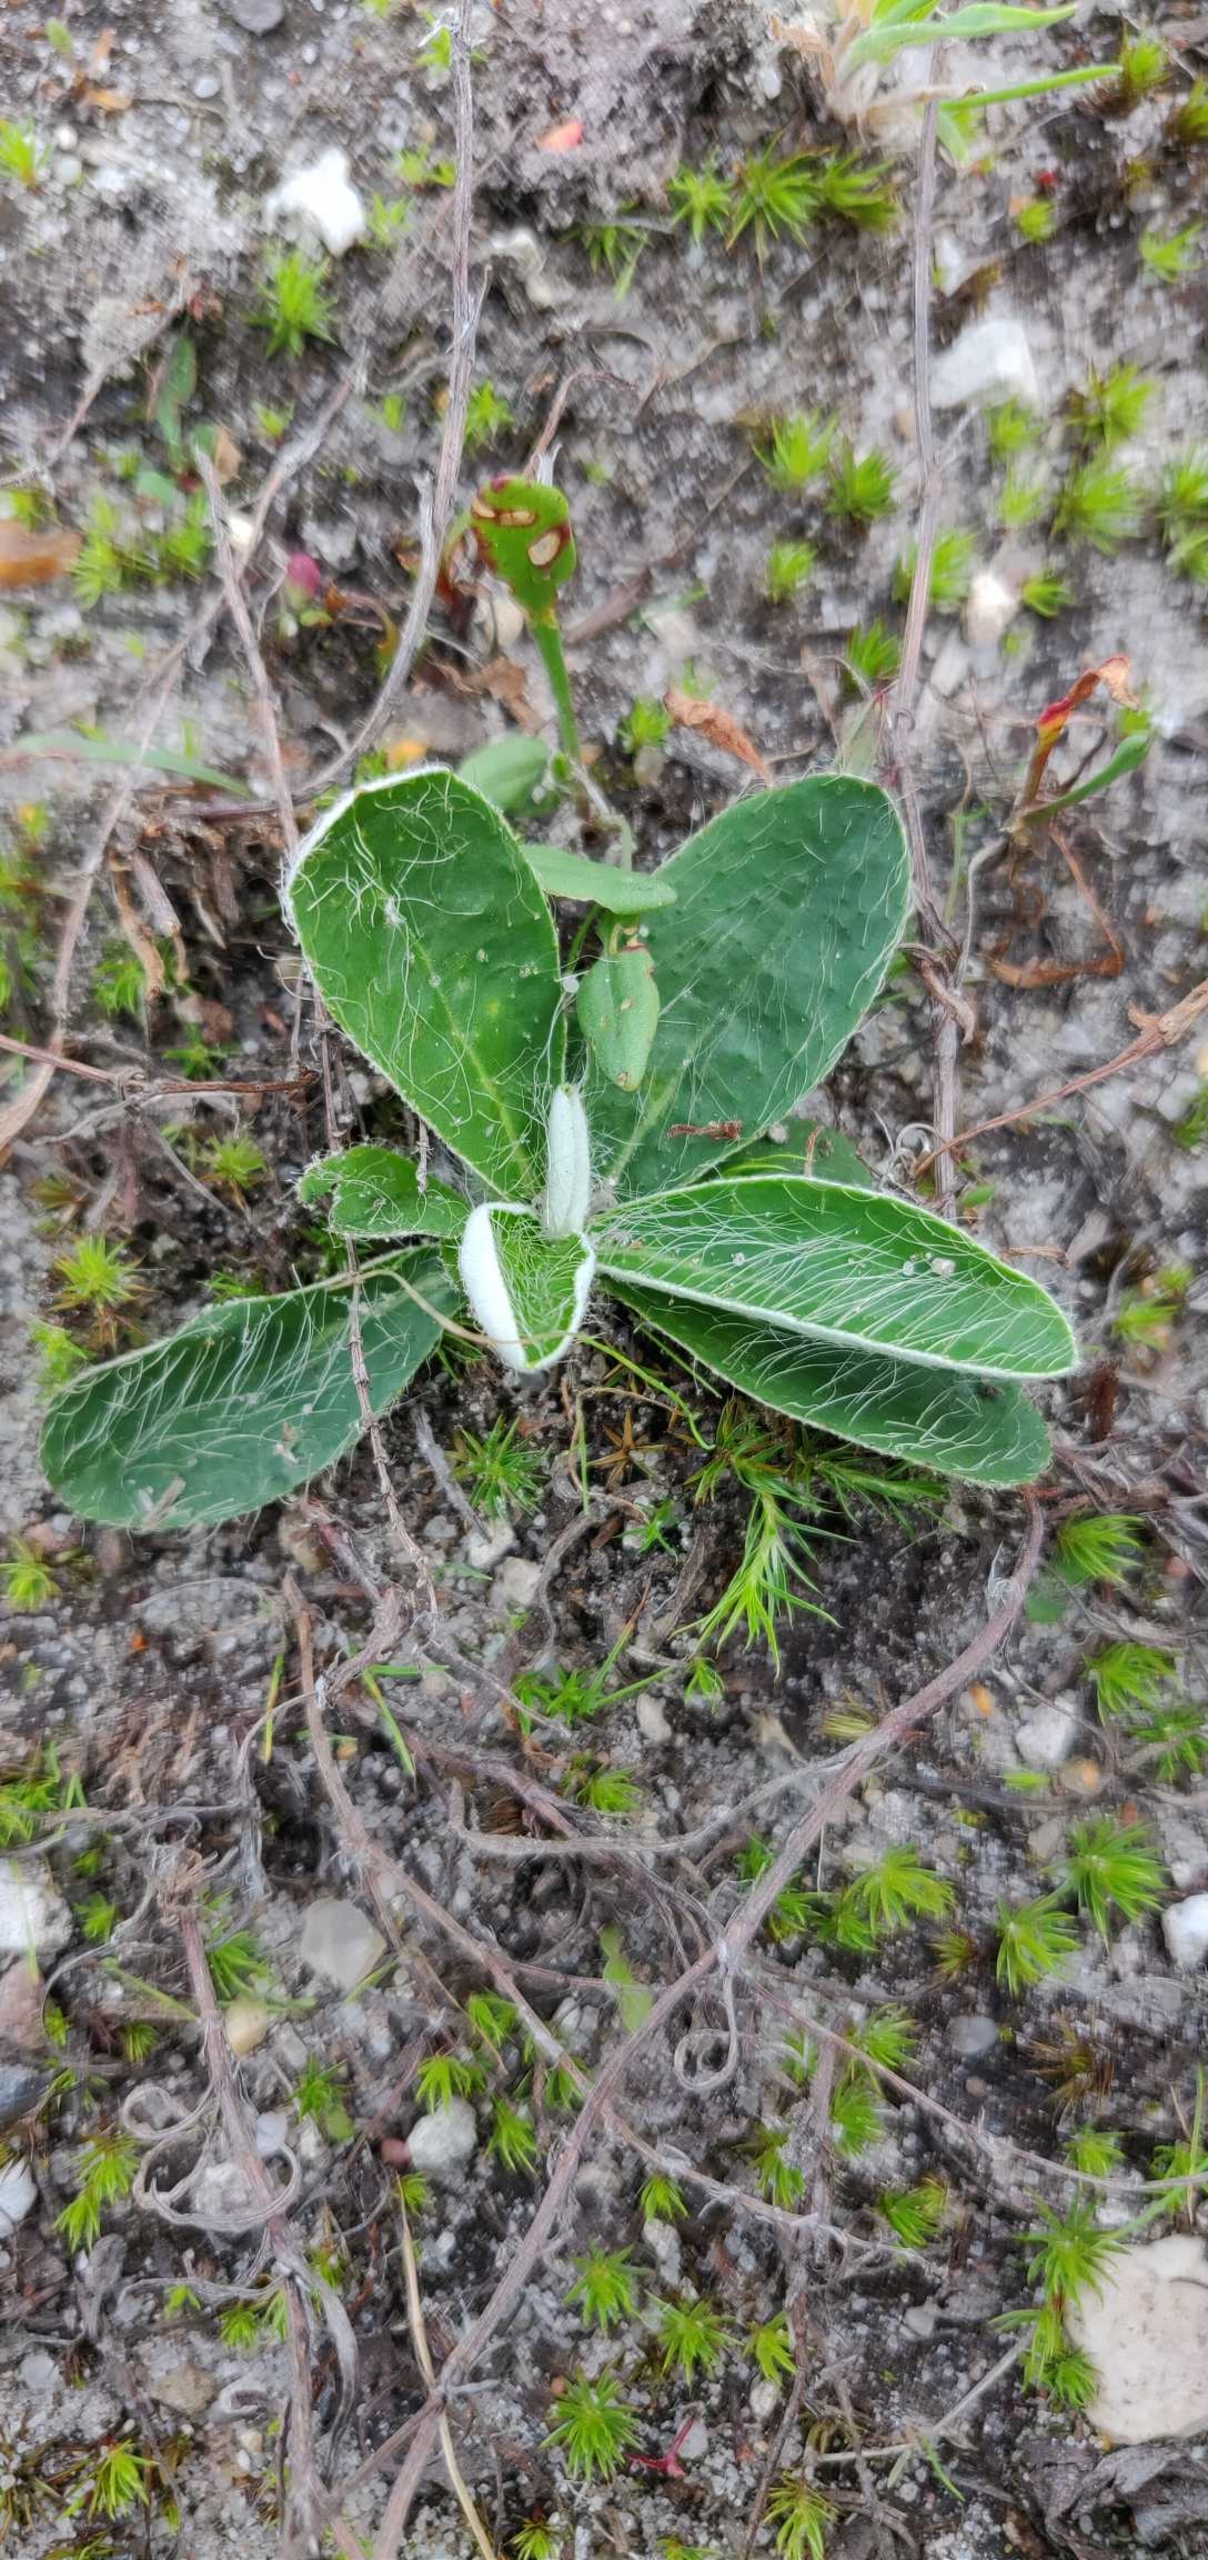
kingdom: Plantae
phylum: Tracheophyta
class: Magnoliopsida
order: Asterales
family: Asteraceae
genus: Pilosella
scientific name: Pilosella officinarum
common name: Håret høgeurt
